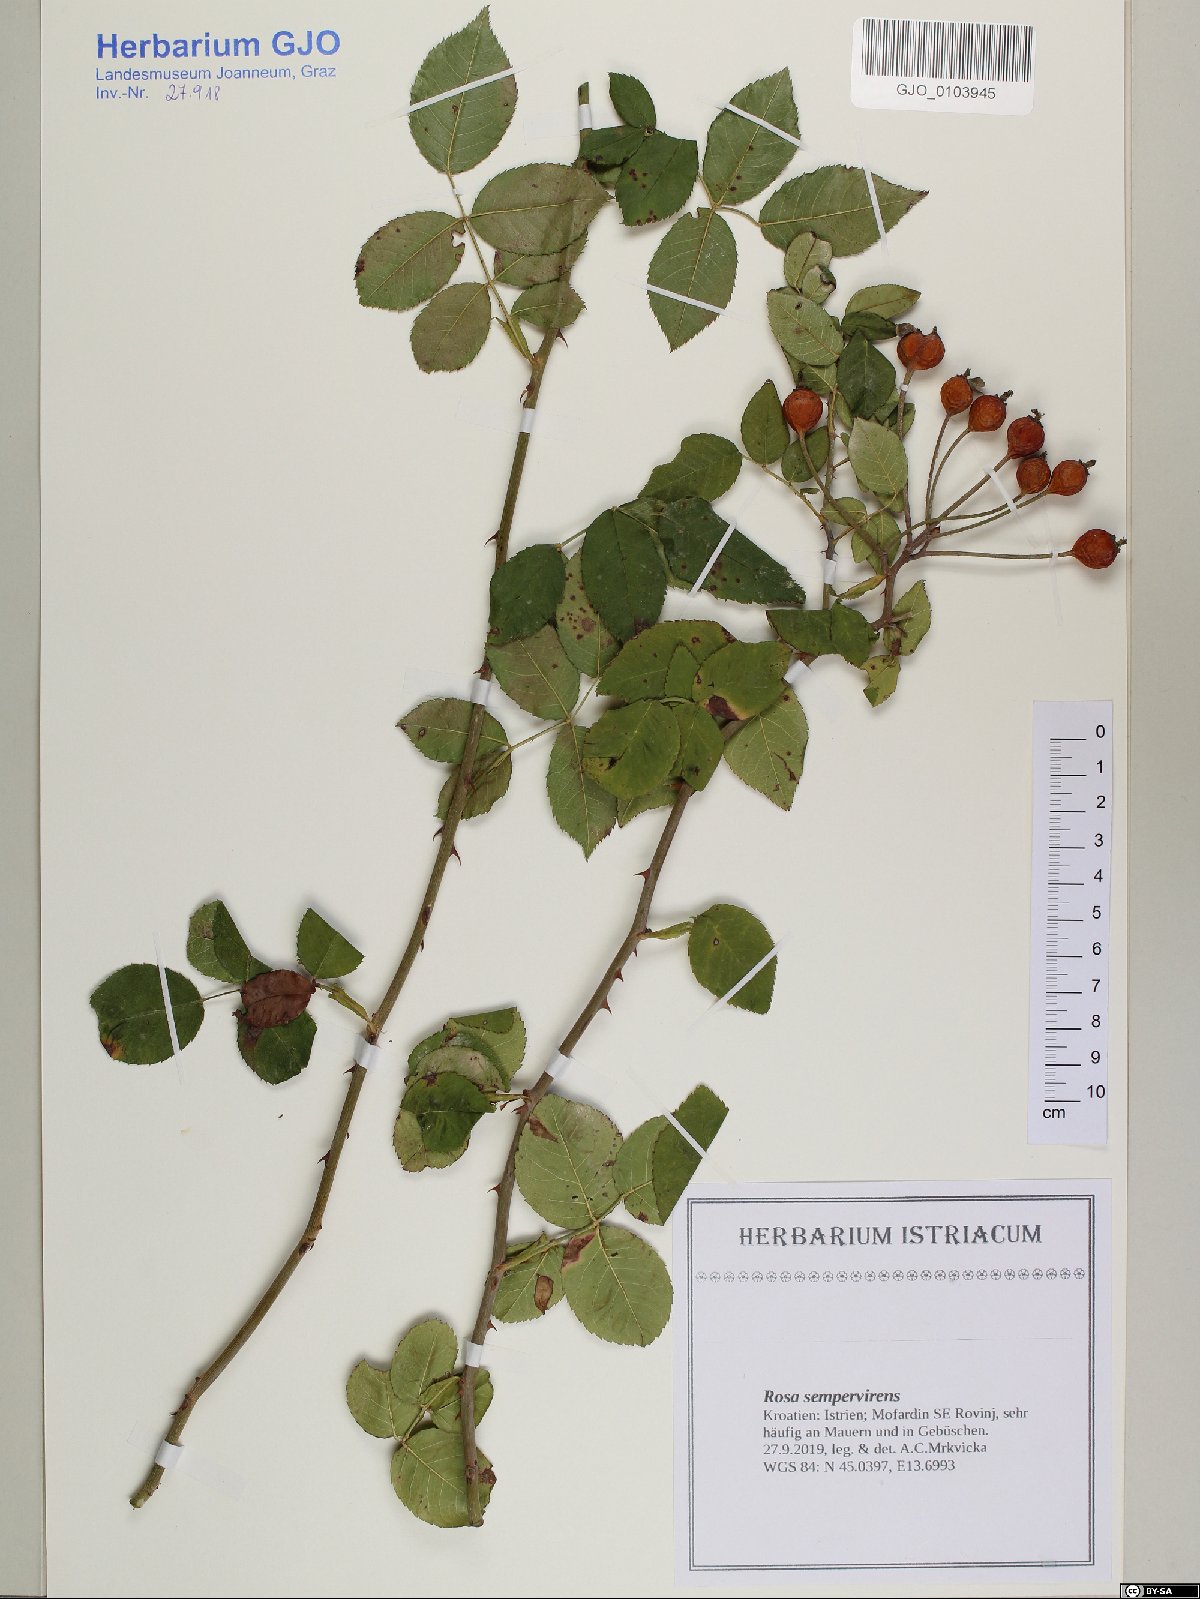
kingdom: Plantae
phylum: Tracheophyta
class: Magnoliopsida
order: Rosales
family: Rosaceae
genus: Rosa
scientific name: Rosa sempervirens
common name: Evergreen rose
